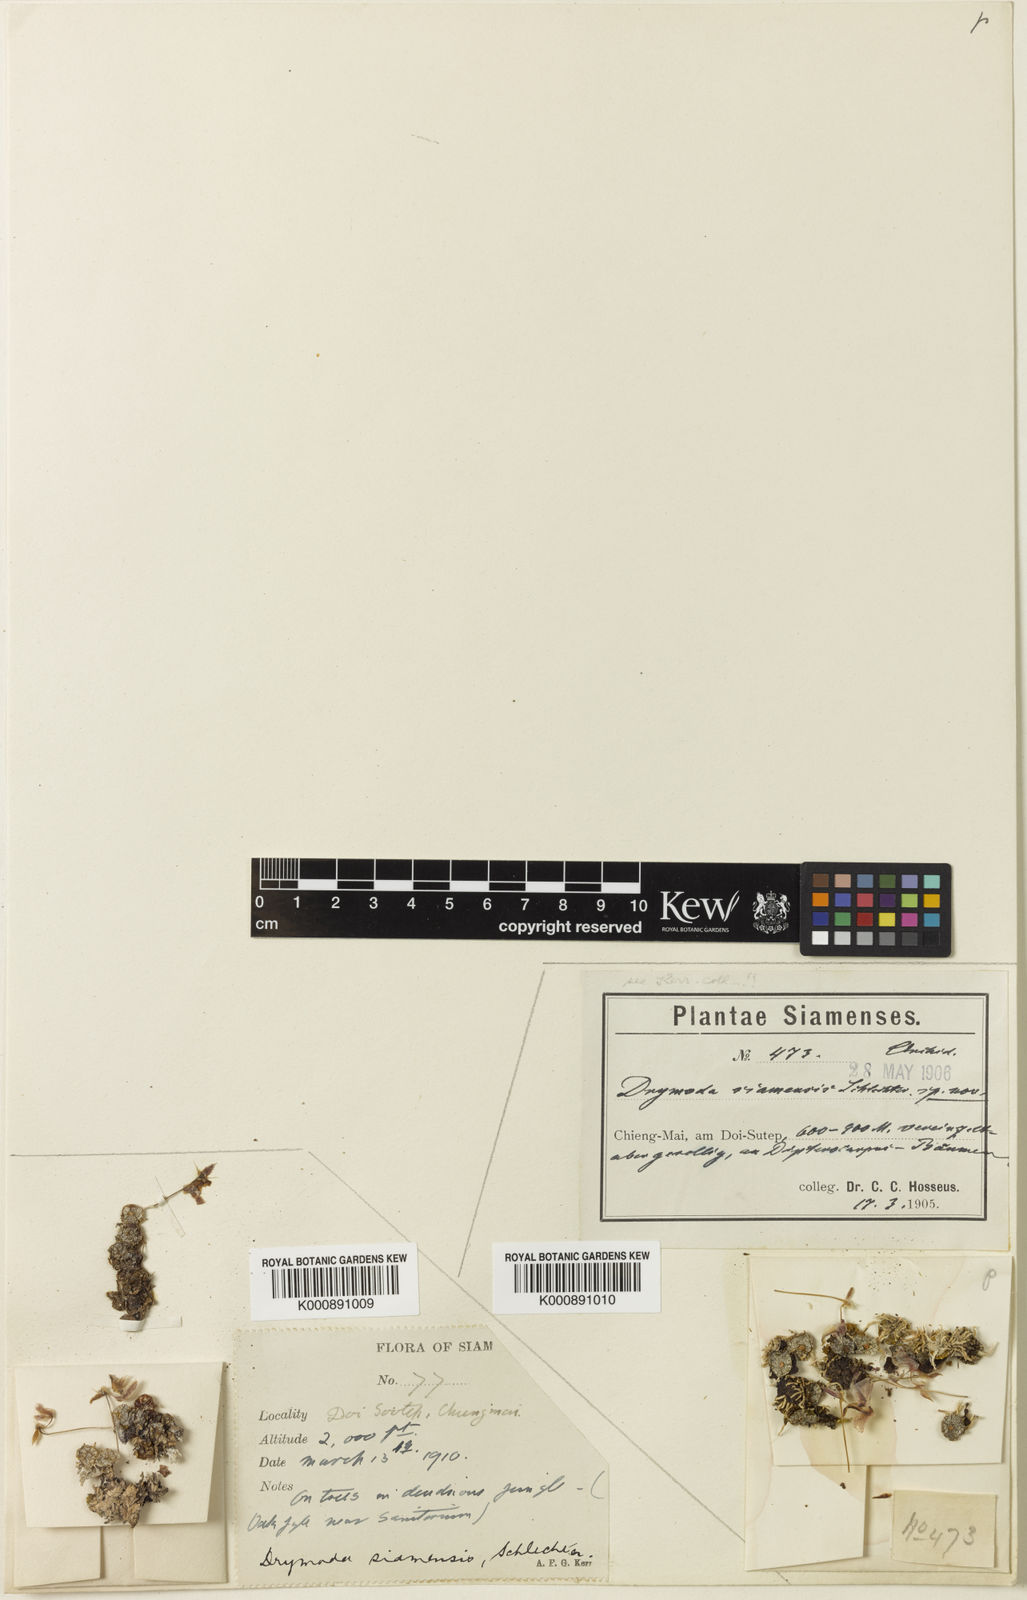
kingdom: Plantae
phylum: Tracheophyta
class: Liliopsida
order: Asparagales
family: Orchidaceae
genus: Bulbophyllum
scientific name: Bulbophyllum ayuthayense
